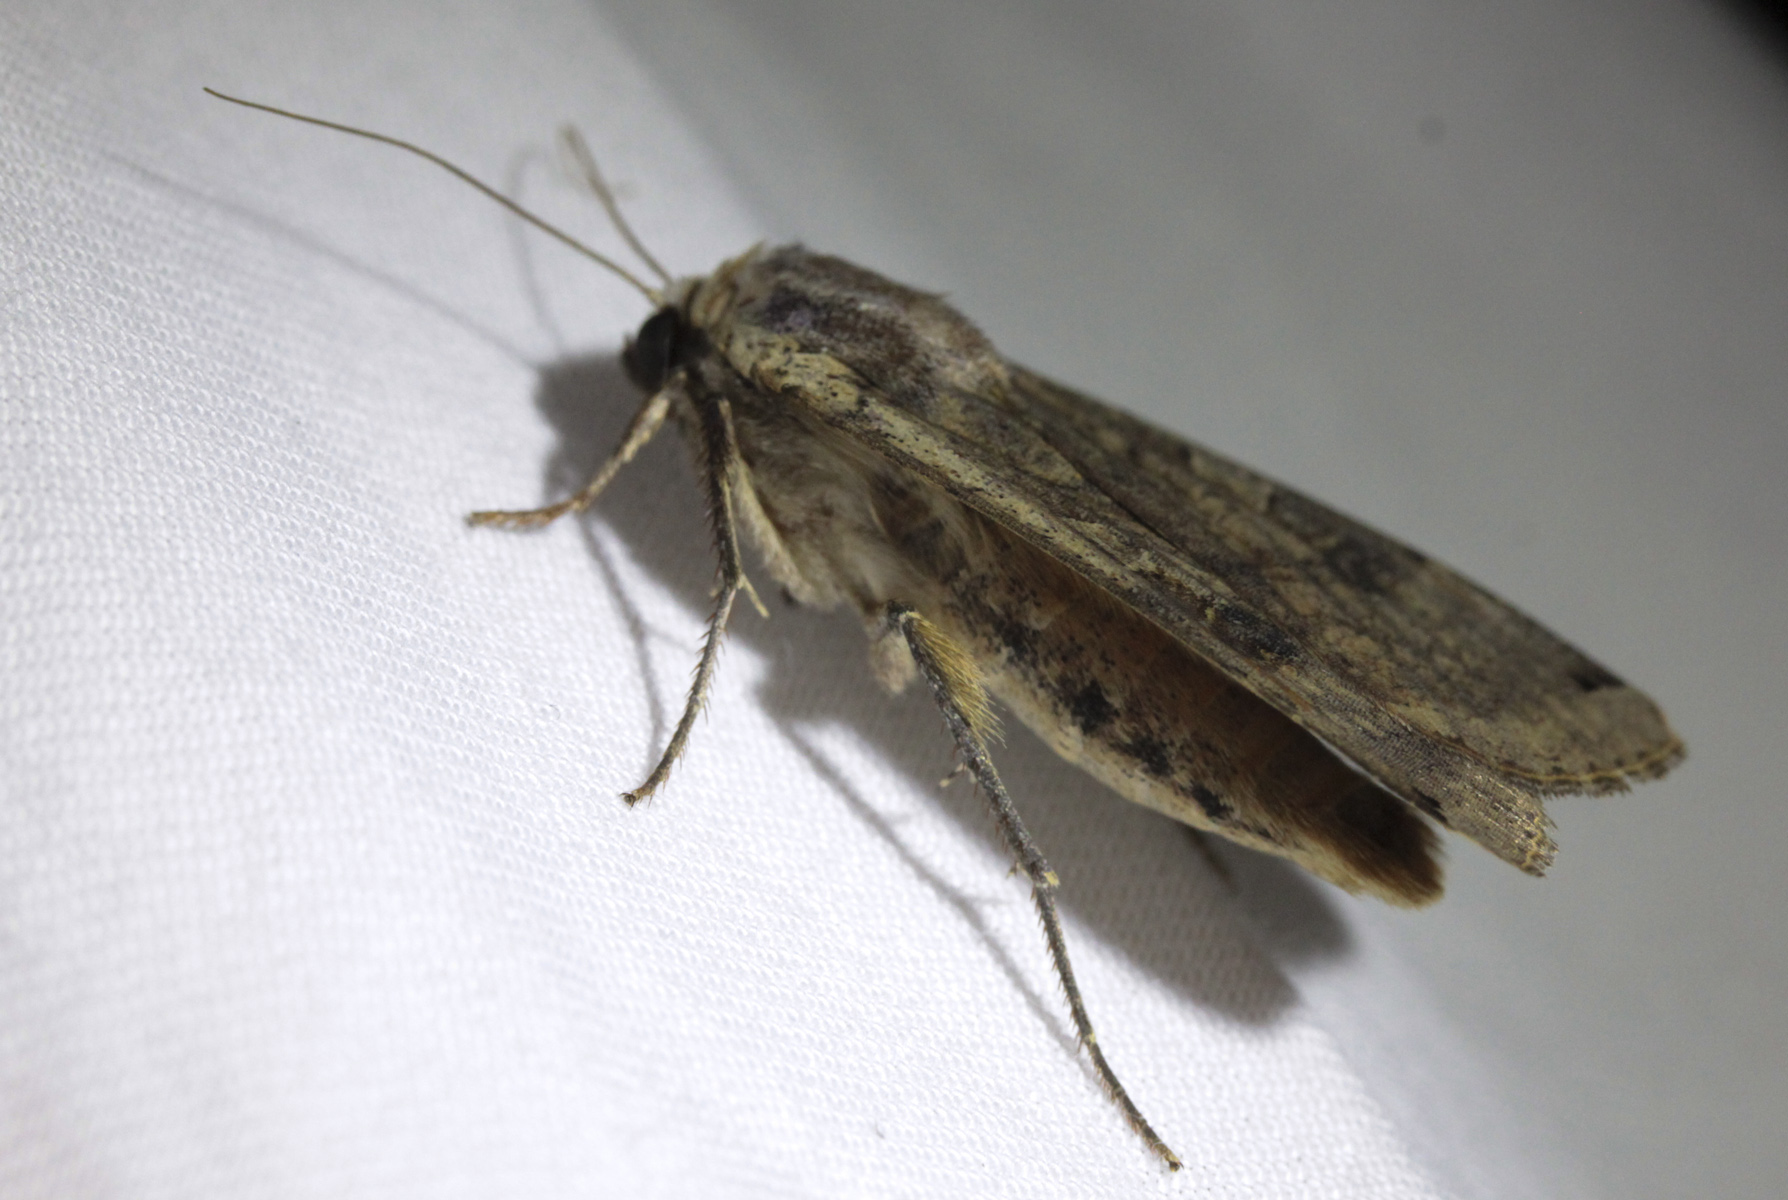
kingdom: Animalia
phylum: Arthropoda
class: Insecta
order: Lepidoptera
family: Noctuidae
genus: Noctua
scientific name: Noctua pronuba
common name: Large yellow underwing
